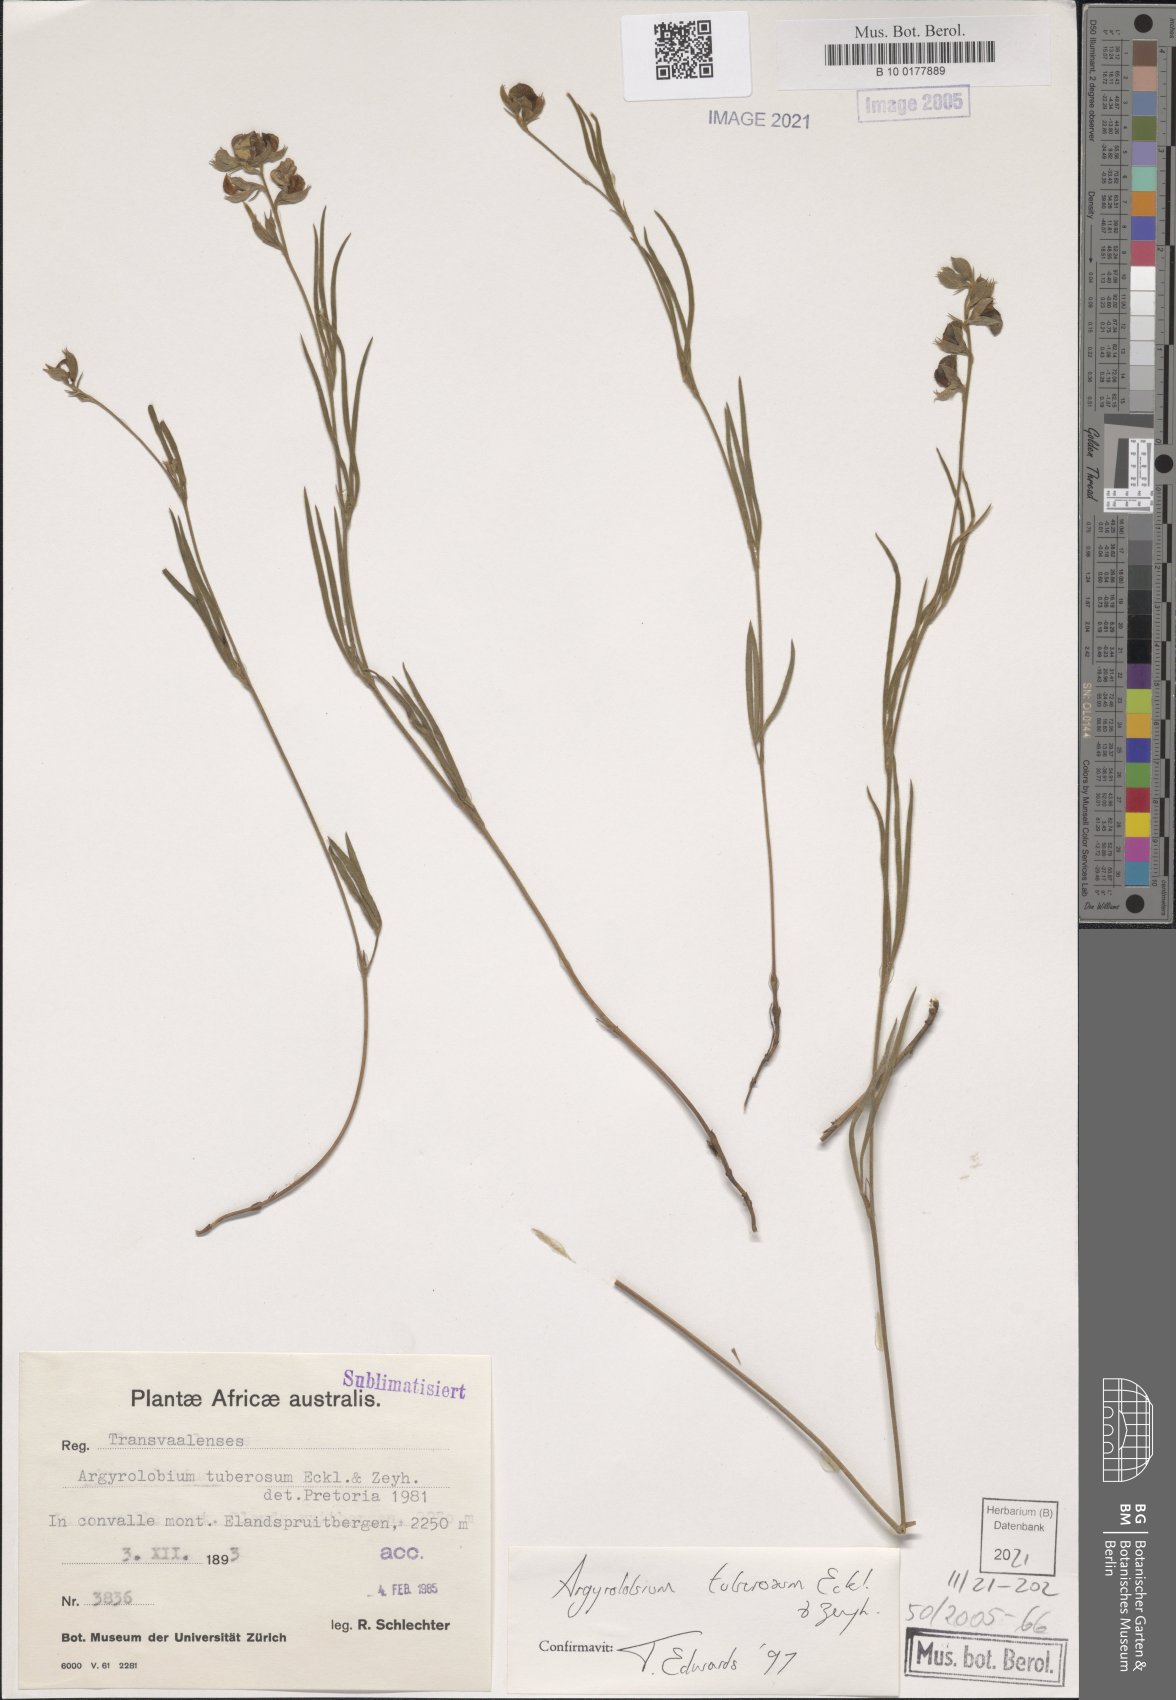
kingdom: Plantae
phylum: Tracheophyta
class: Magnoliopsida
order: Fabales
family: Fabaceae
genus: Argyrolobium
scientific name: Argyrolobium tuberosum
